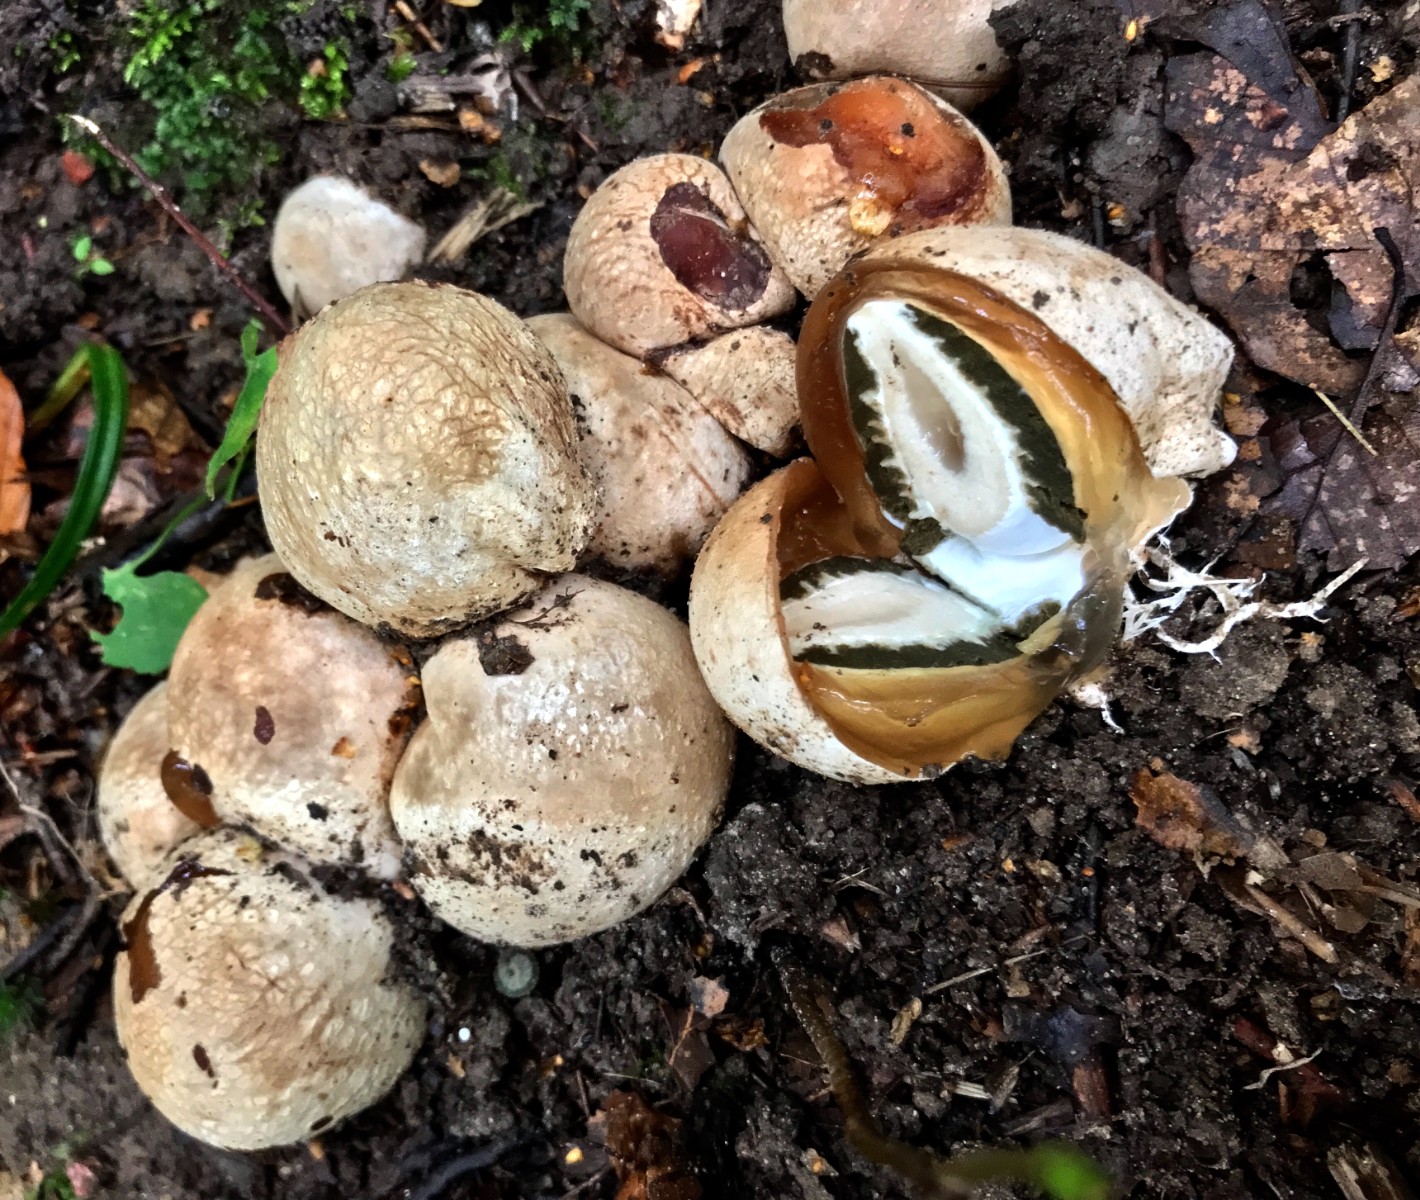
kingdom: Fungi
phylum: Basidiomycota
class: Agaricomycetes
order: Phallales
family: Phallaceae
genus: Phallus
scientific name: Phallus impudicus
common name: almindelig stinksvamp
